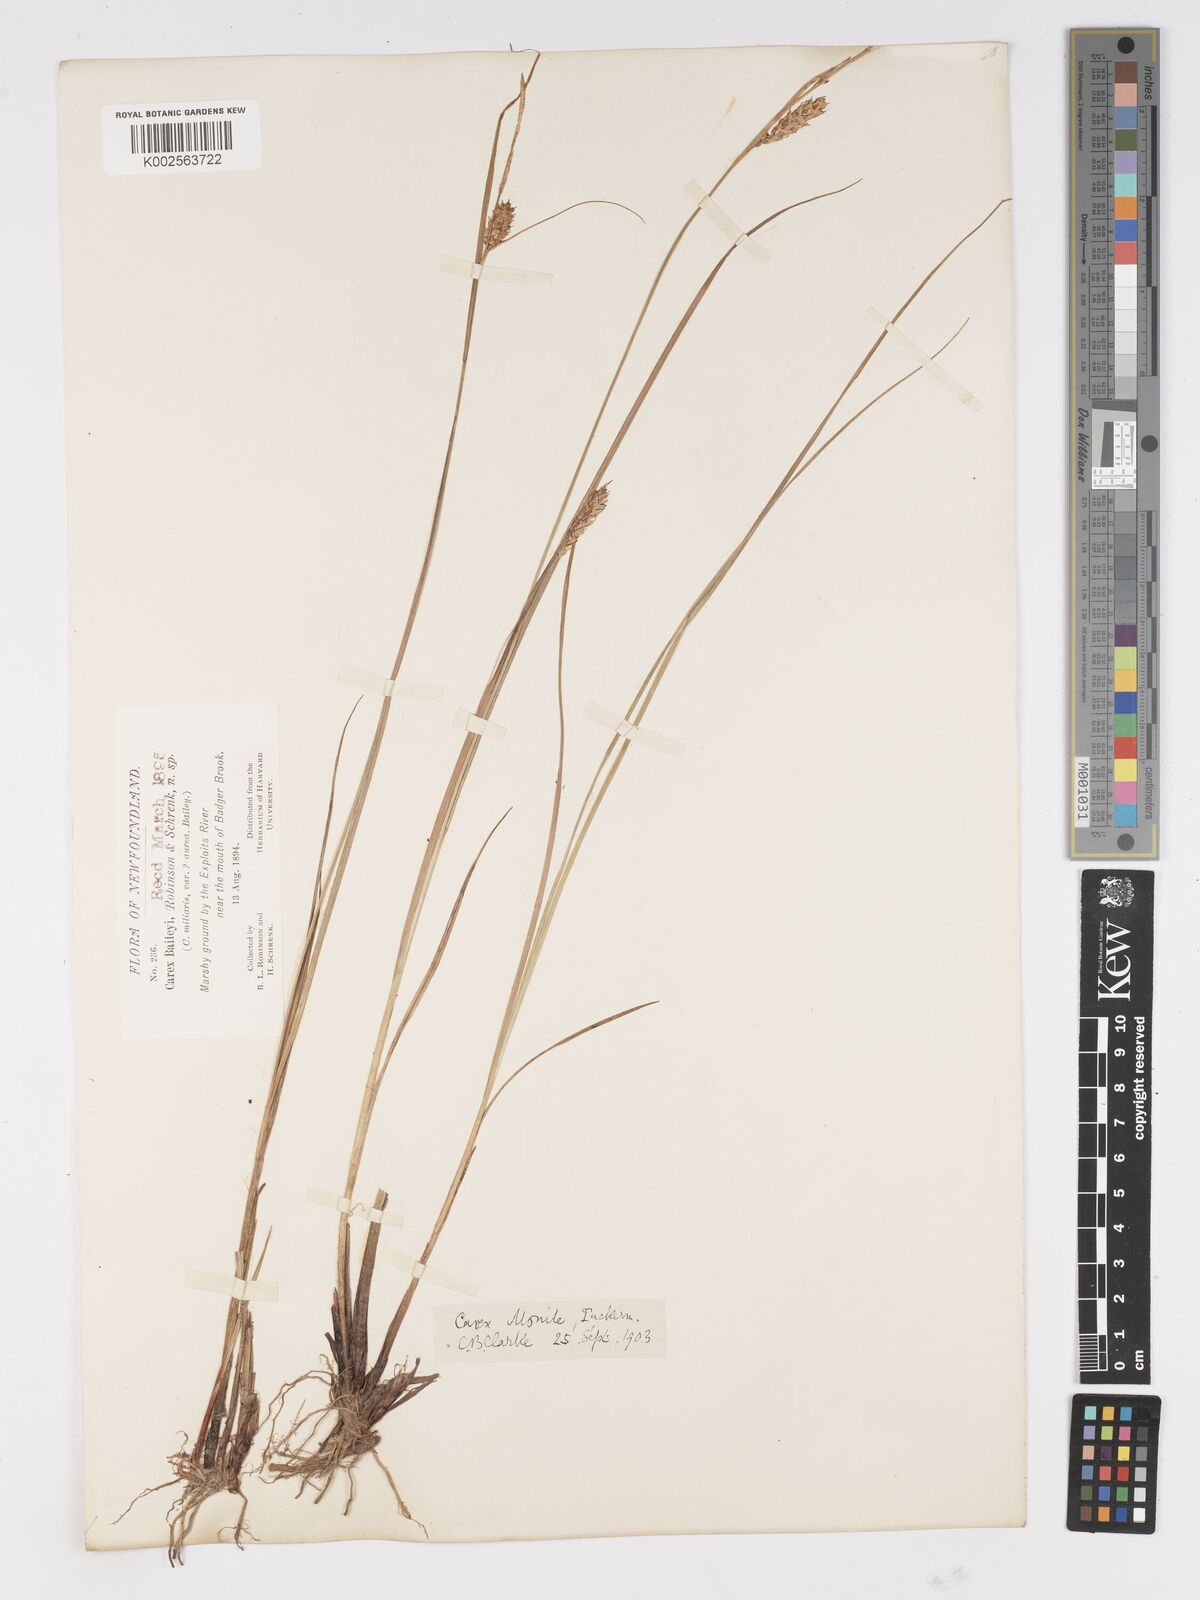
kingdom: Plantae
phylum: Tracheophyta
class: Liliopsida
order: Poales
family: Cyperaceae
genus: Carex
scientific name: Carex vesicaria
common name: Bladder-sedge
